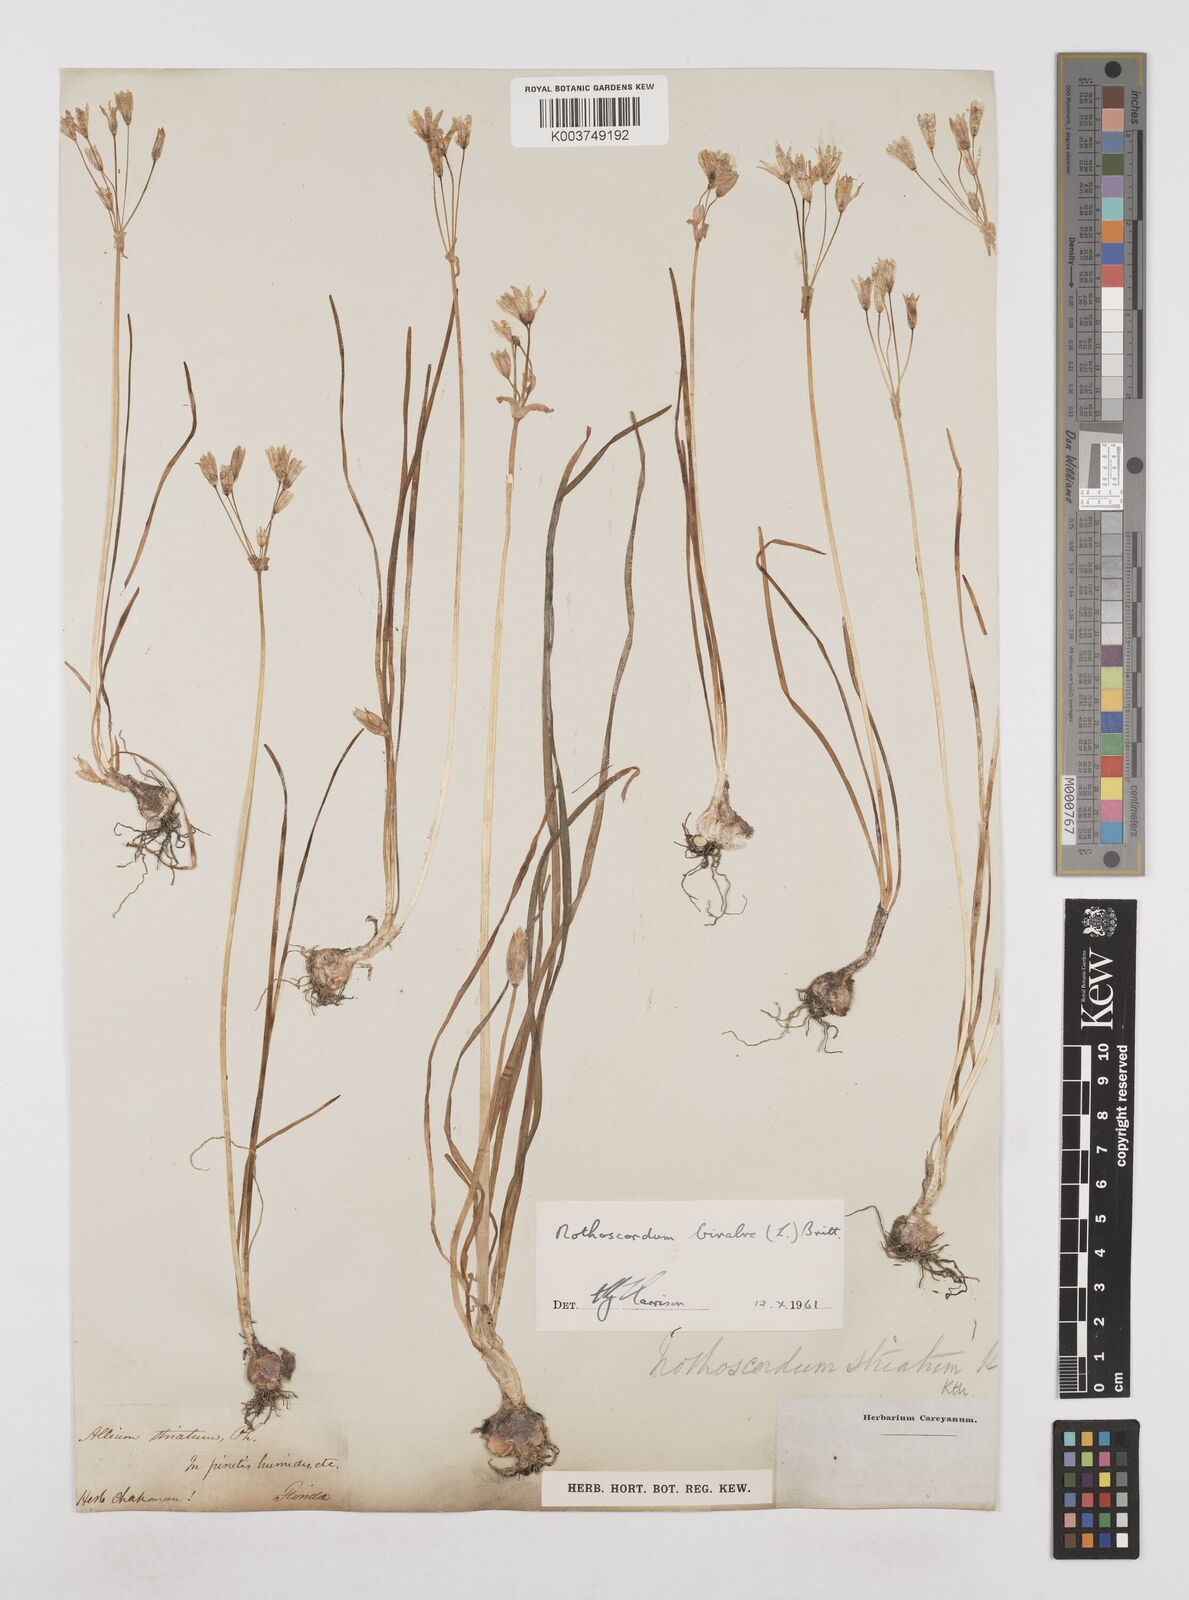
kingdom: Plantae
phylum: Tracheophyta
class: Liliopsida
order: Asparagales
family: Amaryllidaceae
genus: Nothoscordum
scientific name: Nothoscordum bivalve
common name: Crow-poison
